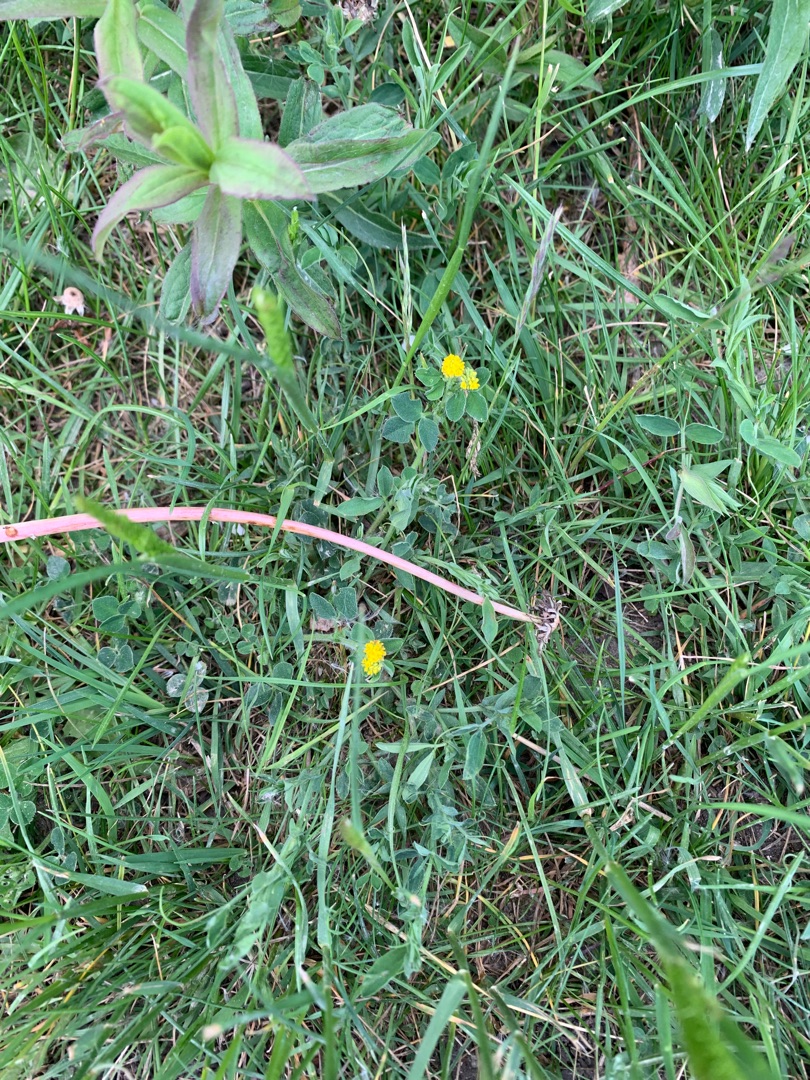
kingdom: Plantae
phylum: Tracheophyta
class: Magnoliopsida
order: Fabales
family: Fabaceae
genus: Medicago
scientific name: Medicago lupulina
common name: Humle-sneglebælg
